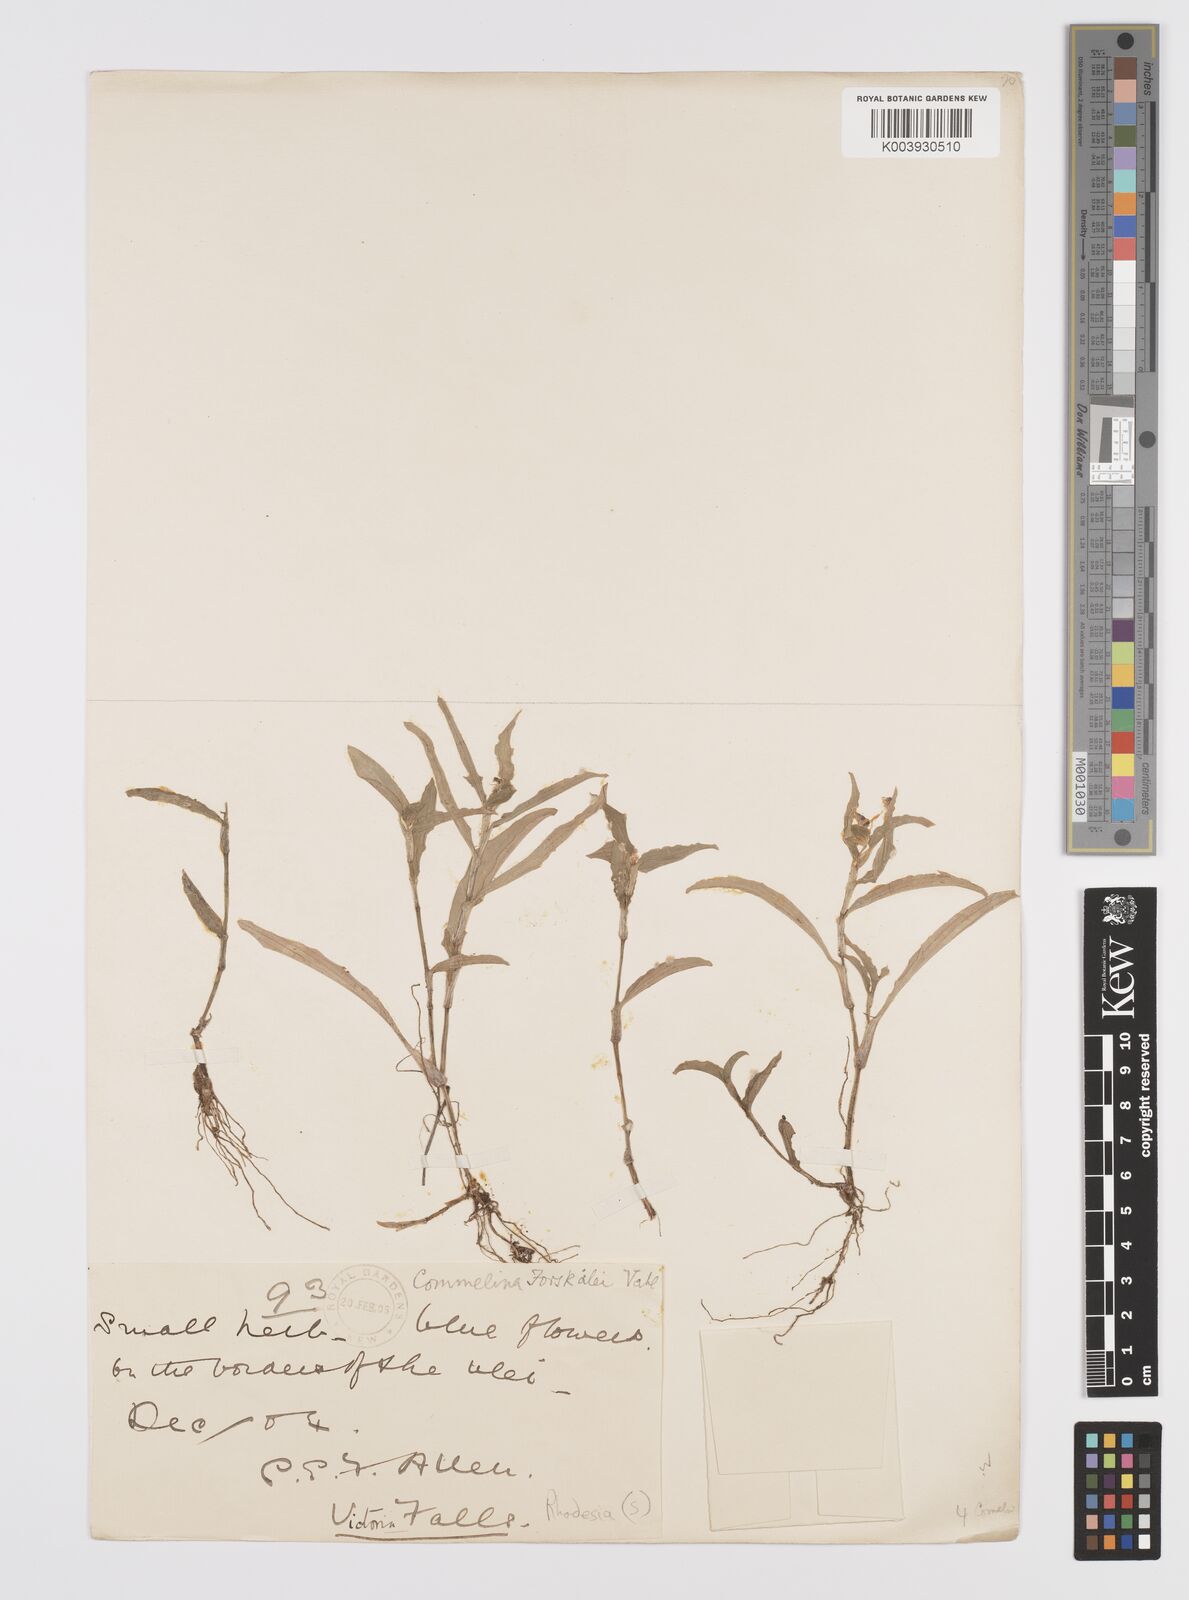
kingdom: Plantae
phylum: Tracheophyta
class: Liliopsida
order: Commelinales
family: Commelinaceae
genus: Commelina
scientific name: Commelina forskaolii
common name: Rat's ear
